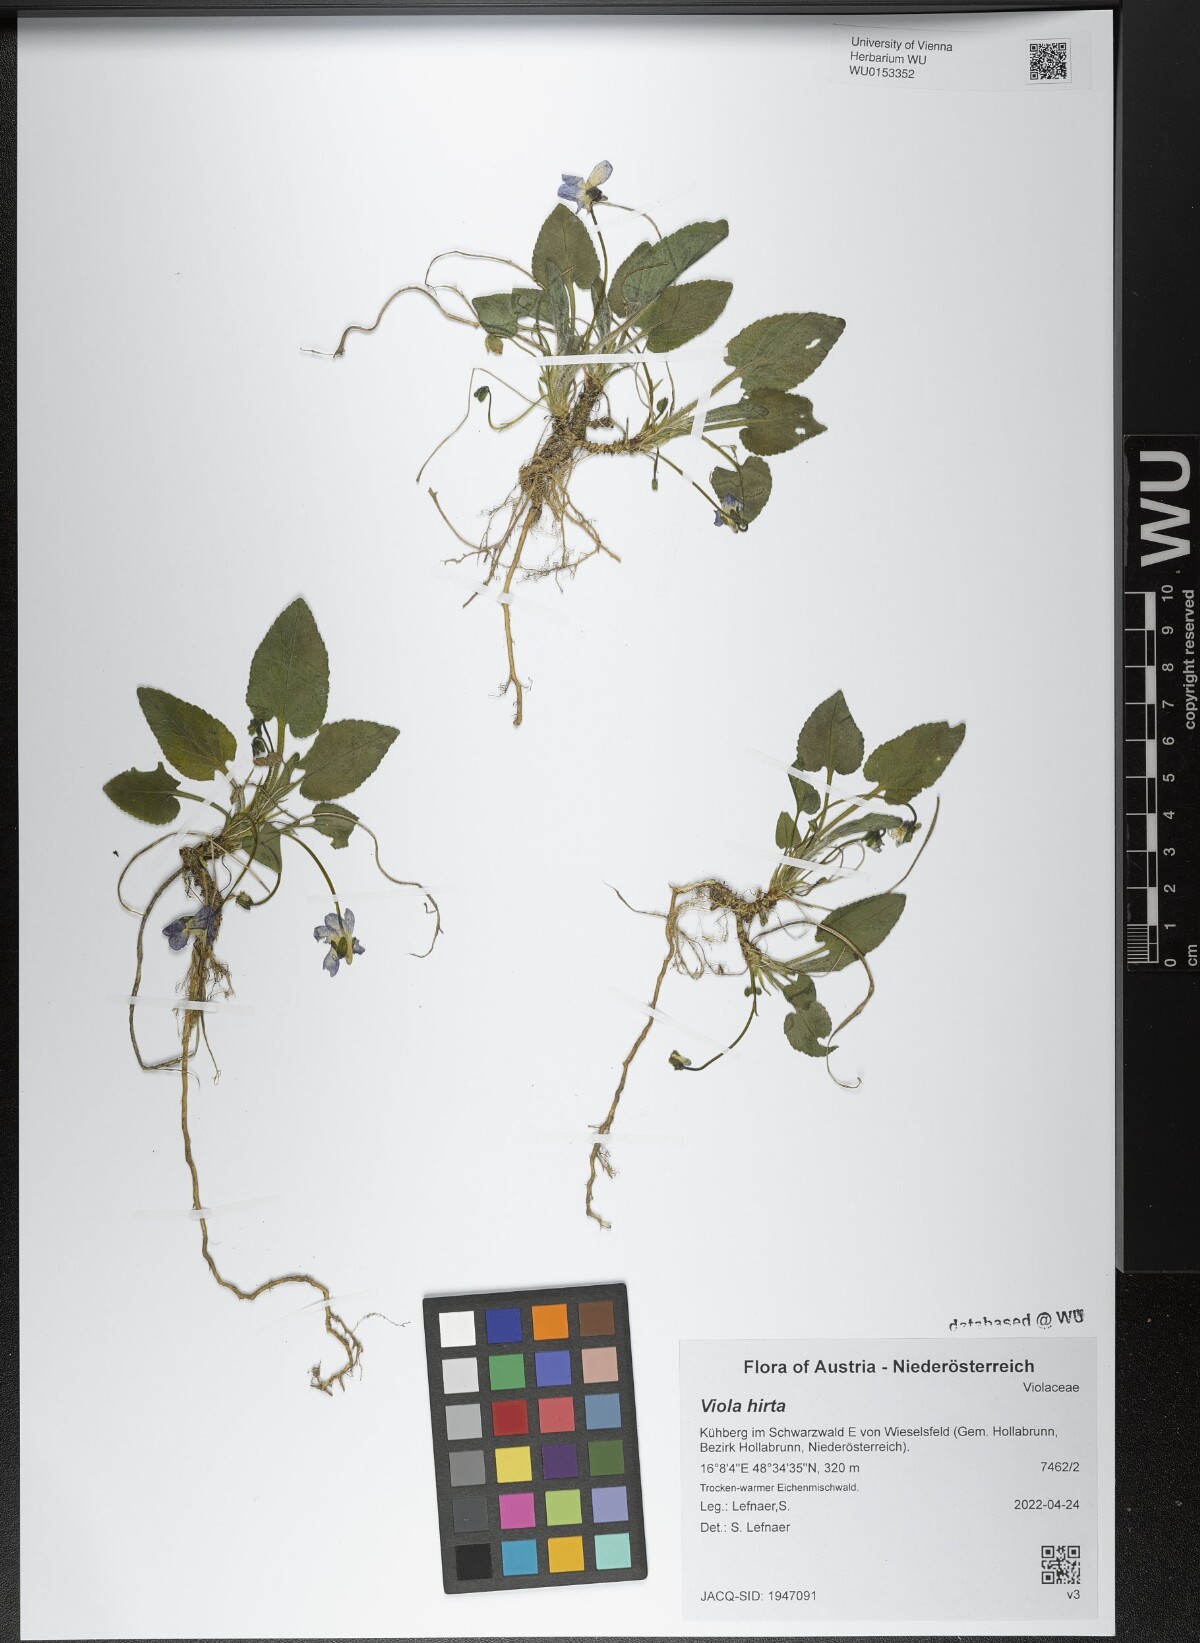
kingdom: Plantae
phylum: Tracheophyta
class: Magnoliopsida
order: Malpighiales
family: Violaceae
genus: Viola
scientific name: Viola hirta
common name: Hairy violet
